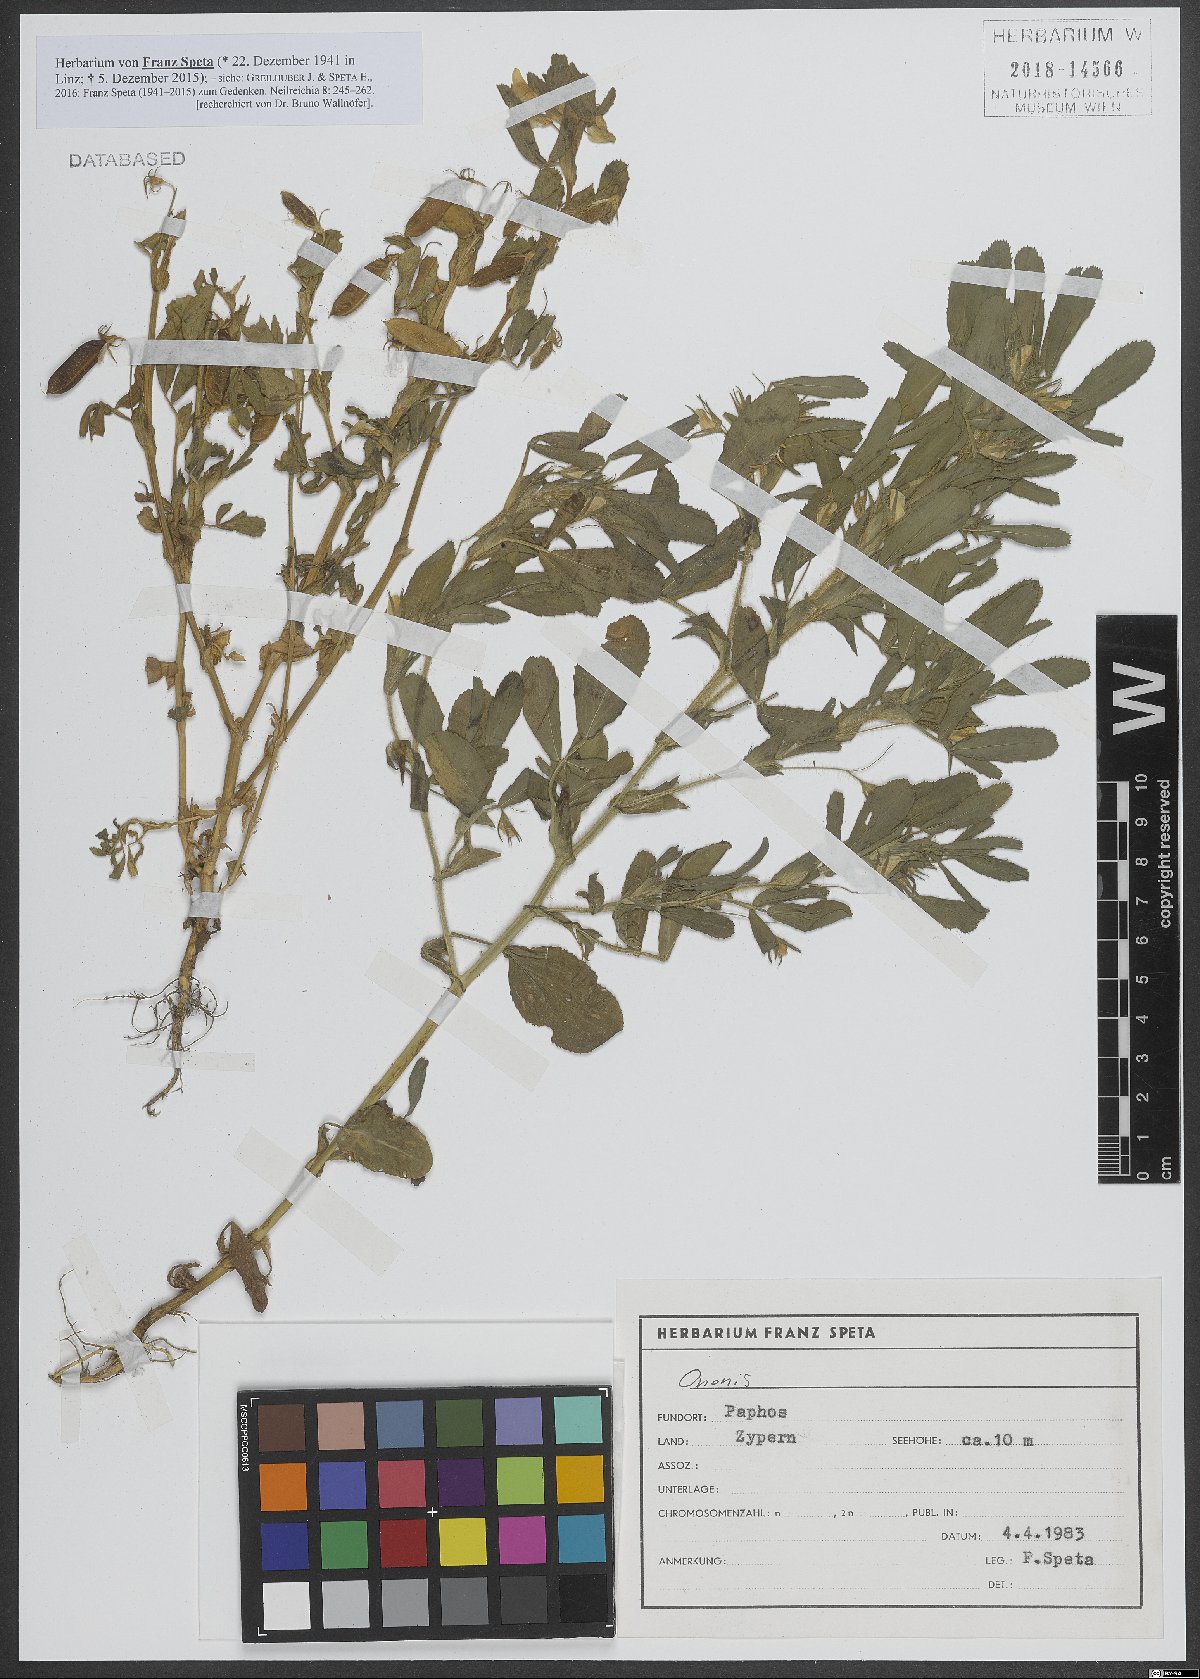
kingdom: Plantae
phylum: Tracheophyta
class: Magnoliopsida
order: Fabales
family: Fabaceae
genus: Ononis
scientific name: Ononis
